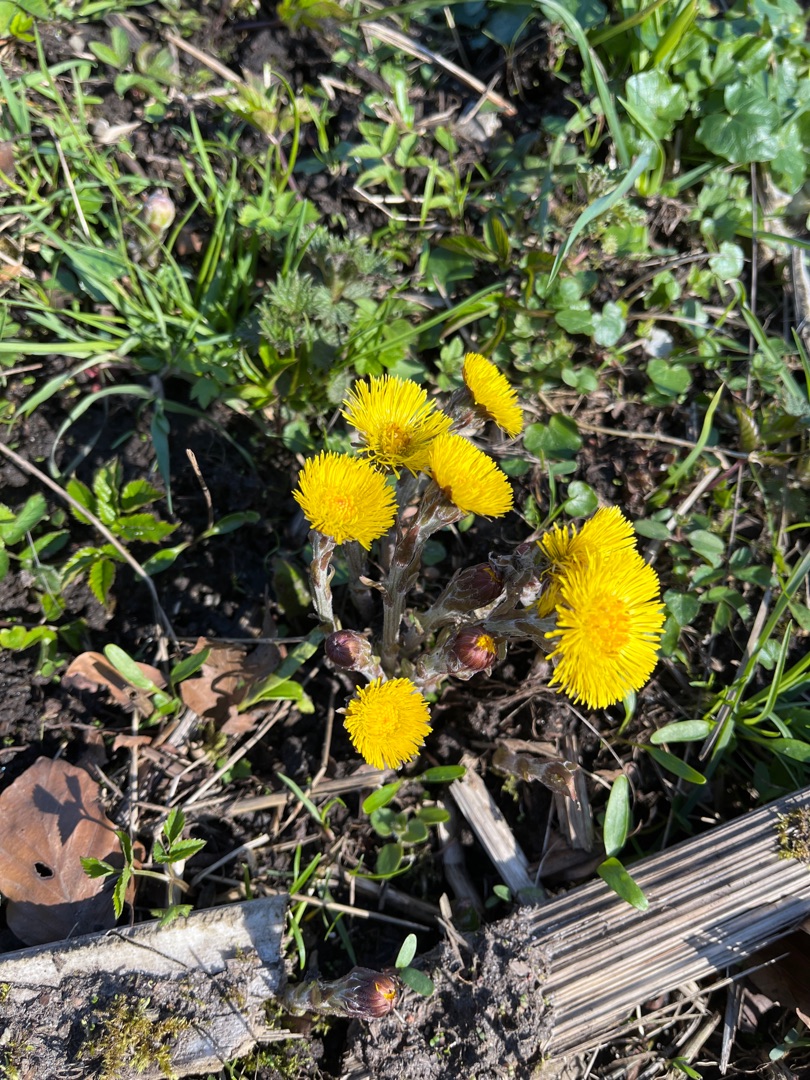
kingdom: Plantae
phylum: Tracheophyta
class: Magnoliopsida
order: Asterales
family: Asteraceae
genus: Tussilago
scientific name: Tussilago farfara
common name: Følfod
